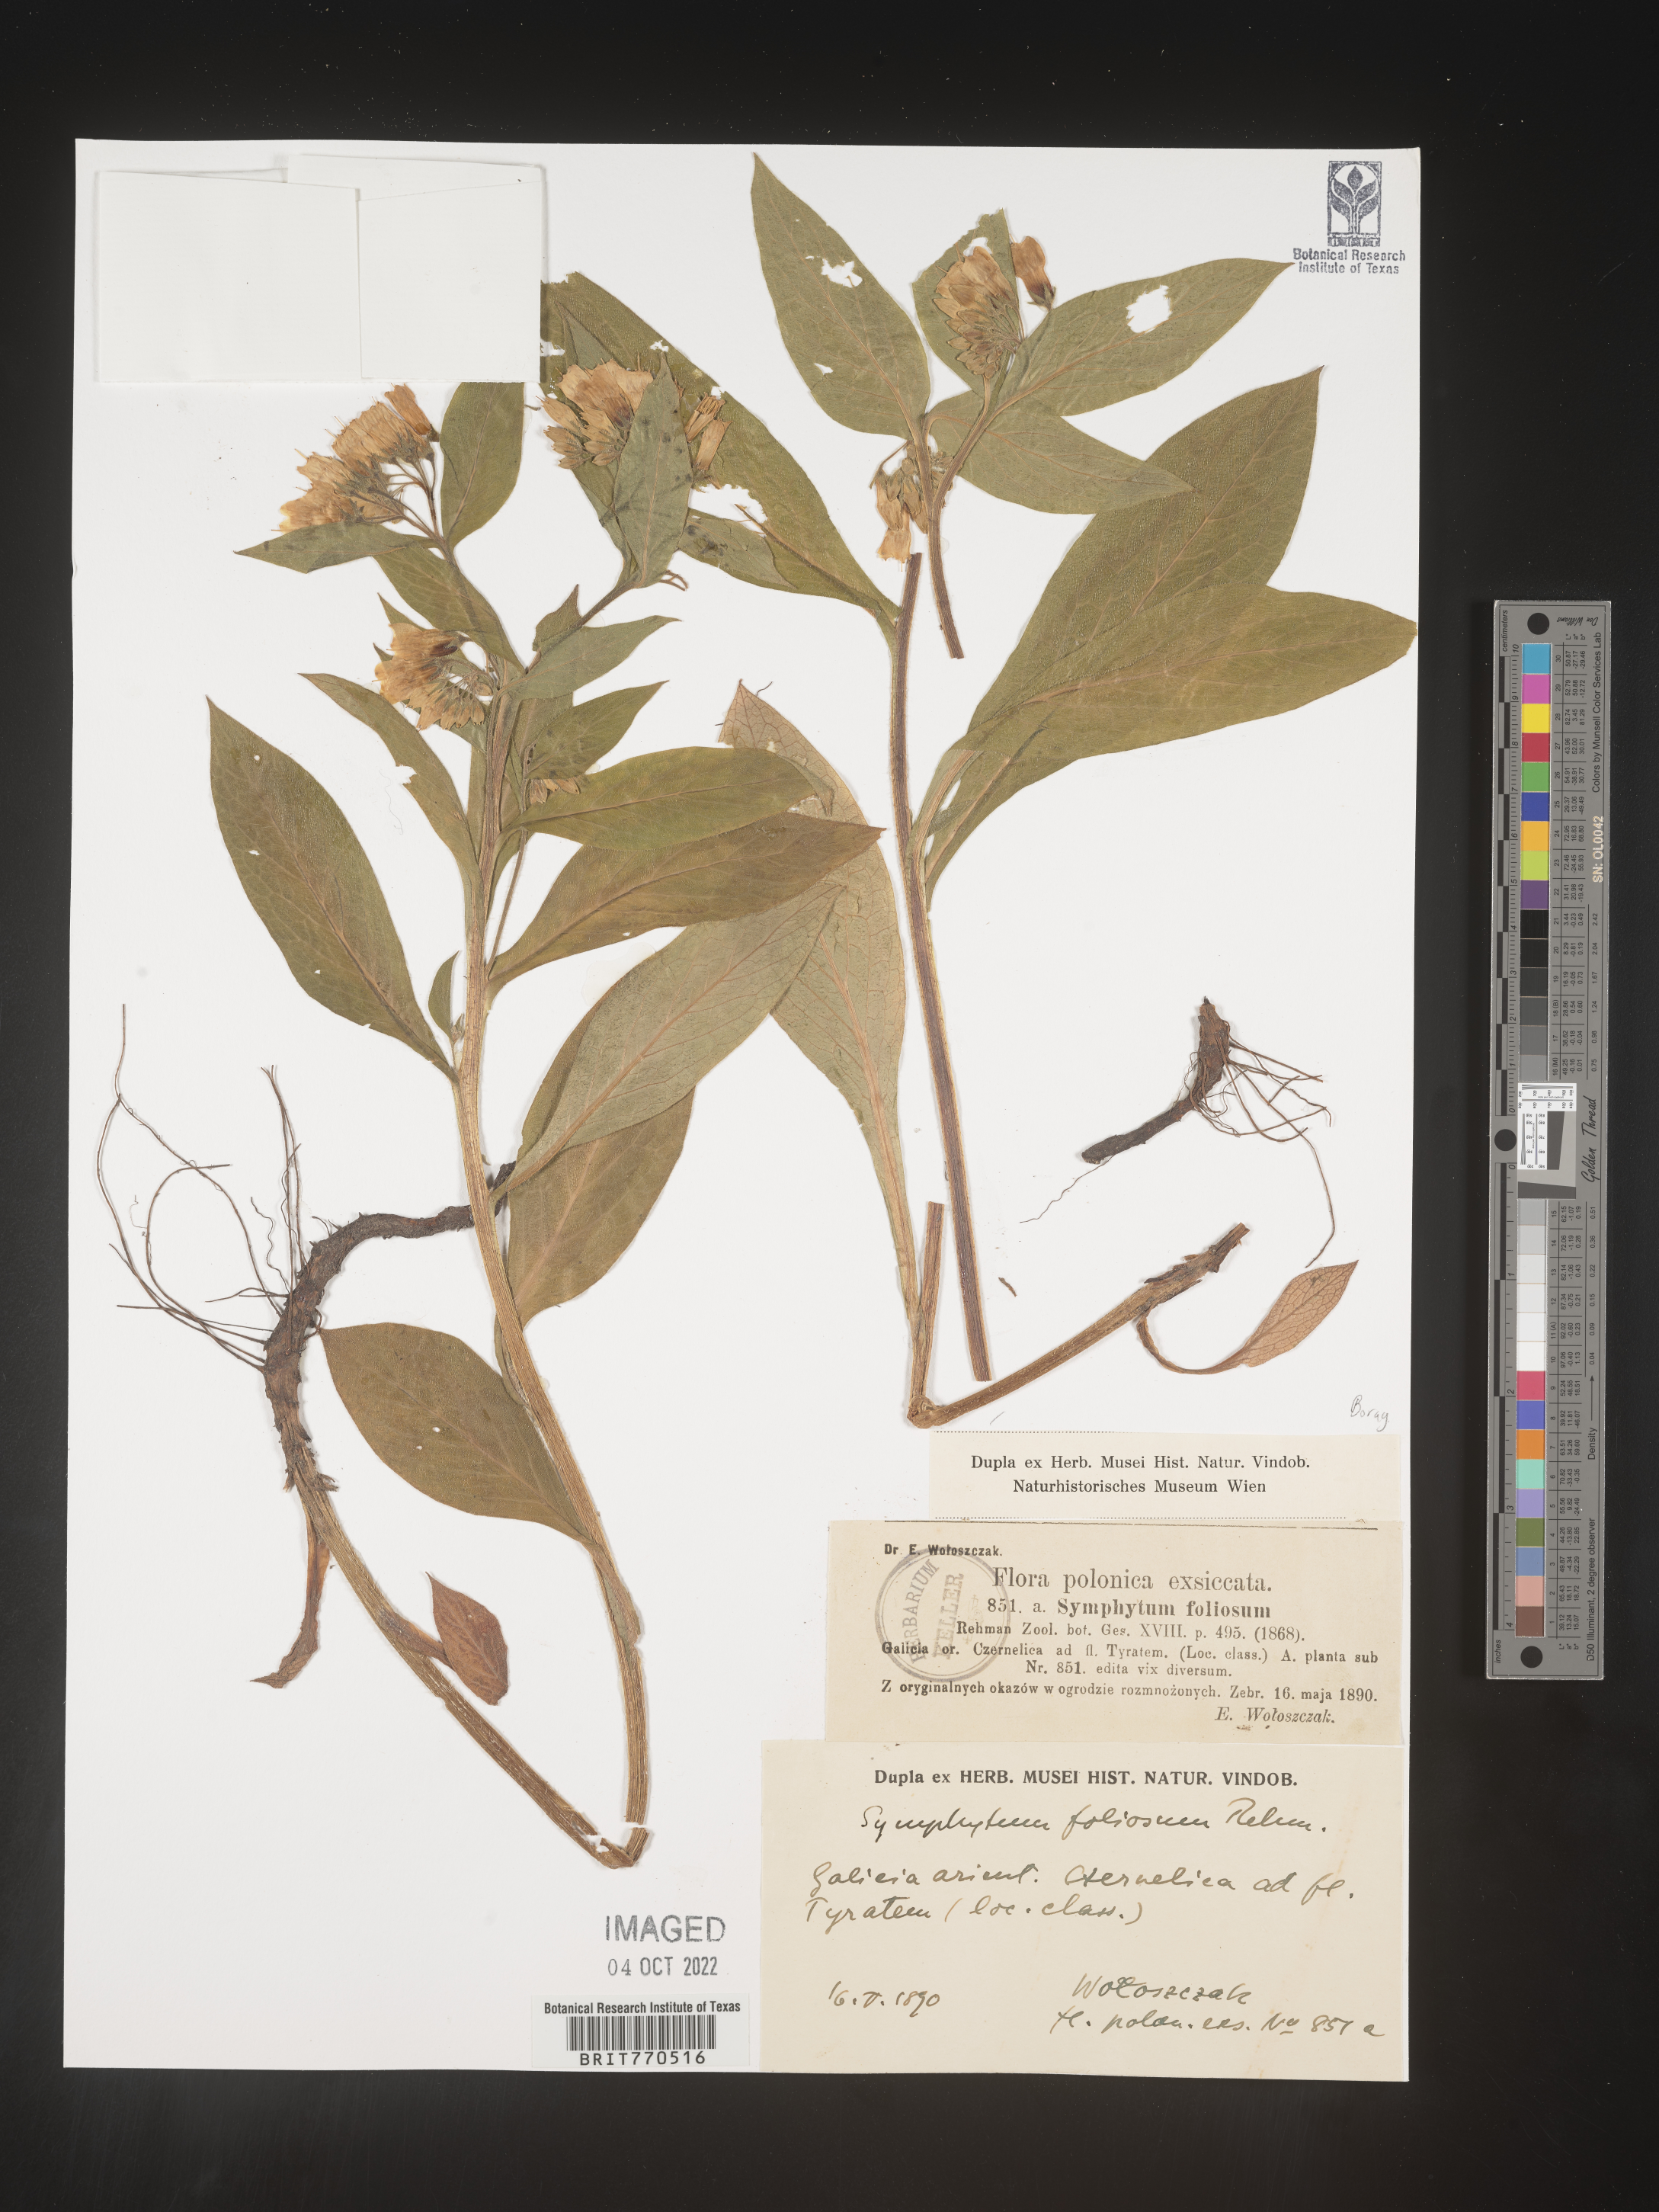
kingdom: Plantae
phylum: Tracheophyta
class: Magnoliopsida
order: Boraginales
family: Boraginaceae
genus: Symphytum
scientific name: Symphytum
